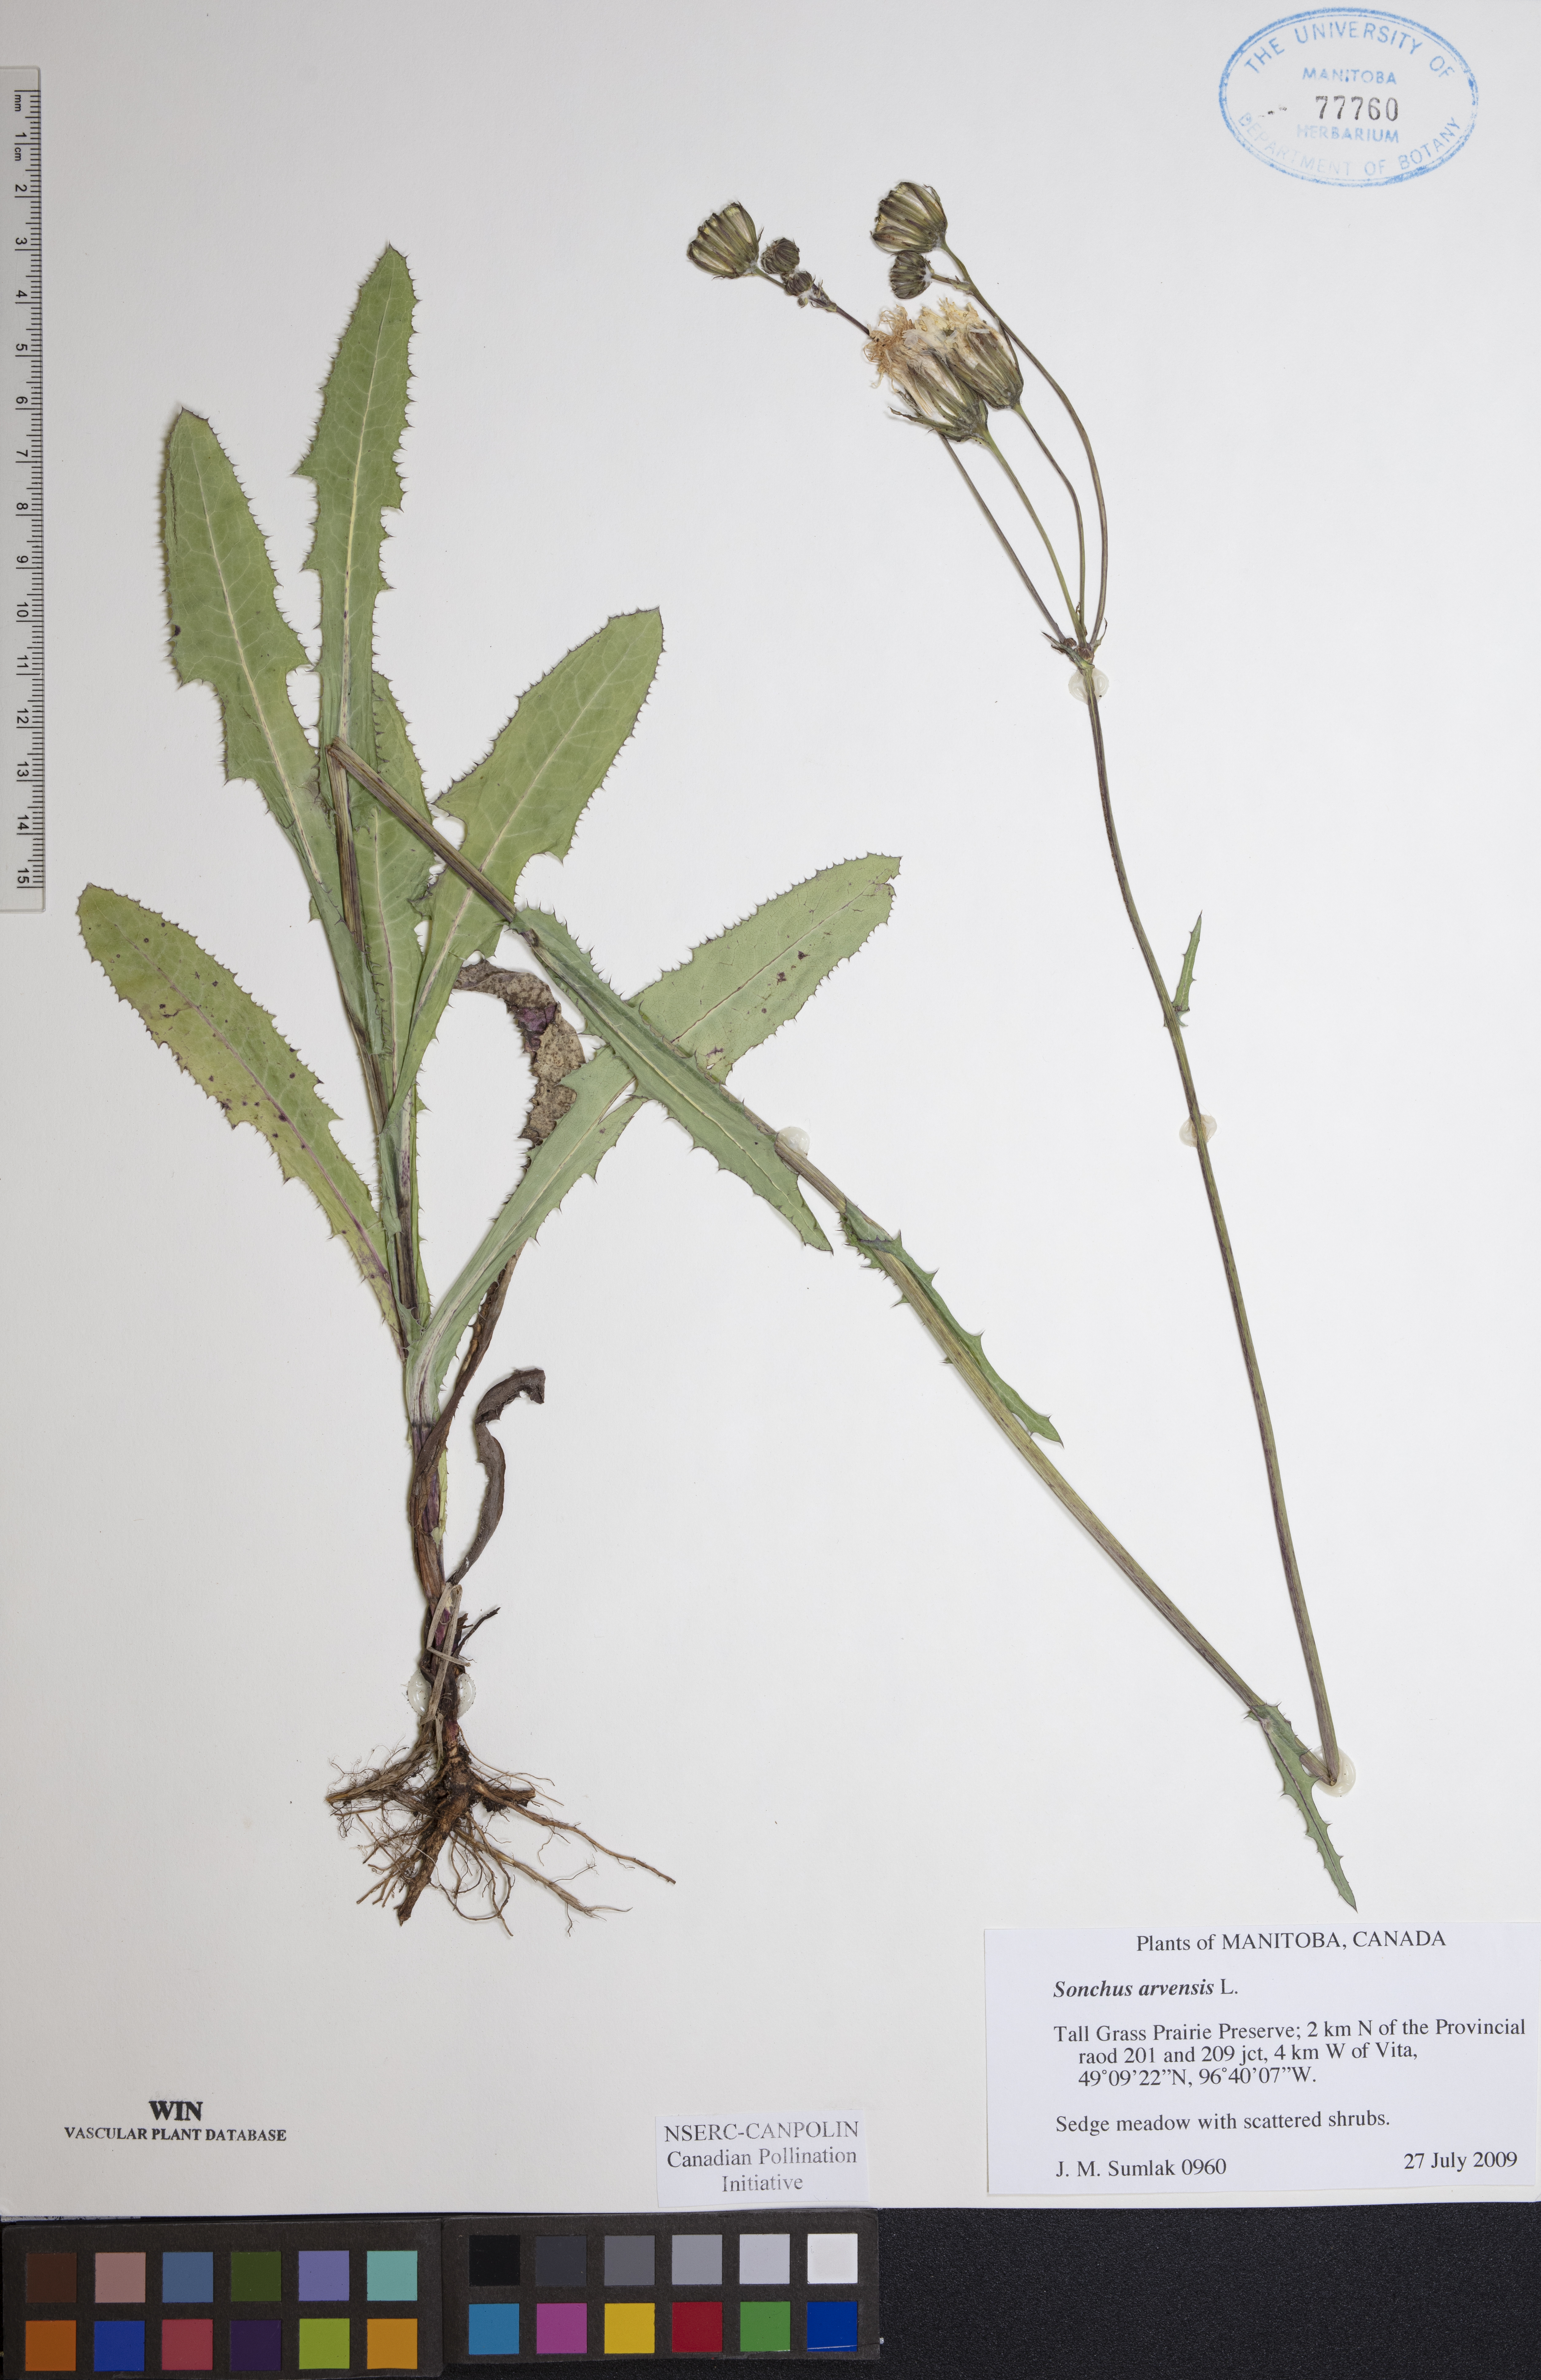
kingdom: Plantae
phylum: Tracheophyta
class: Magnoliopsida
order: Asterales
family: Asteraceae
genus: Sonchus
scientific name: Sonchus arvensis
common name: Perennial sow-thistle
